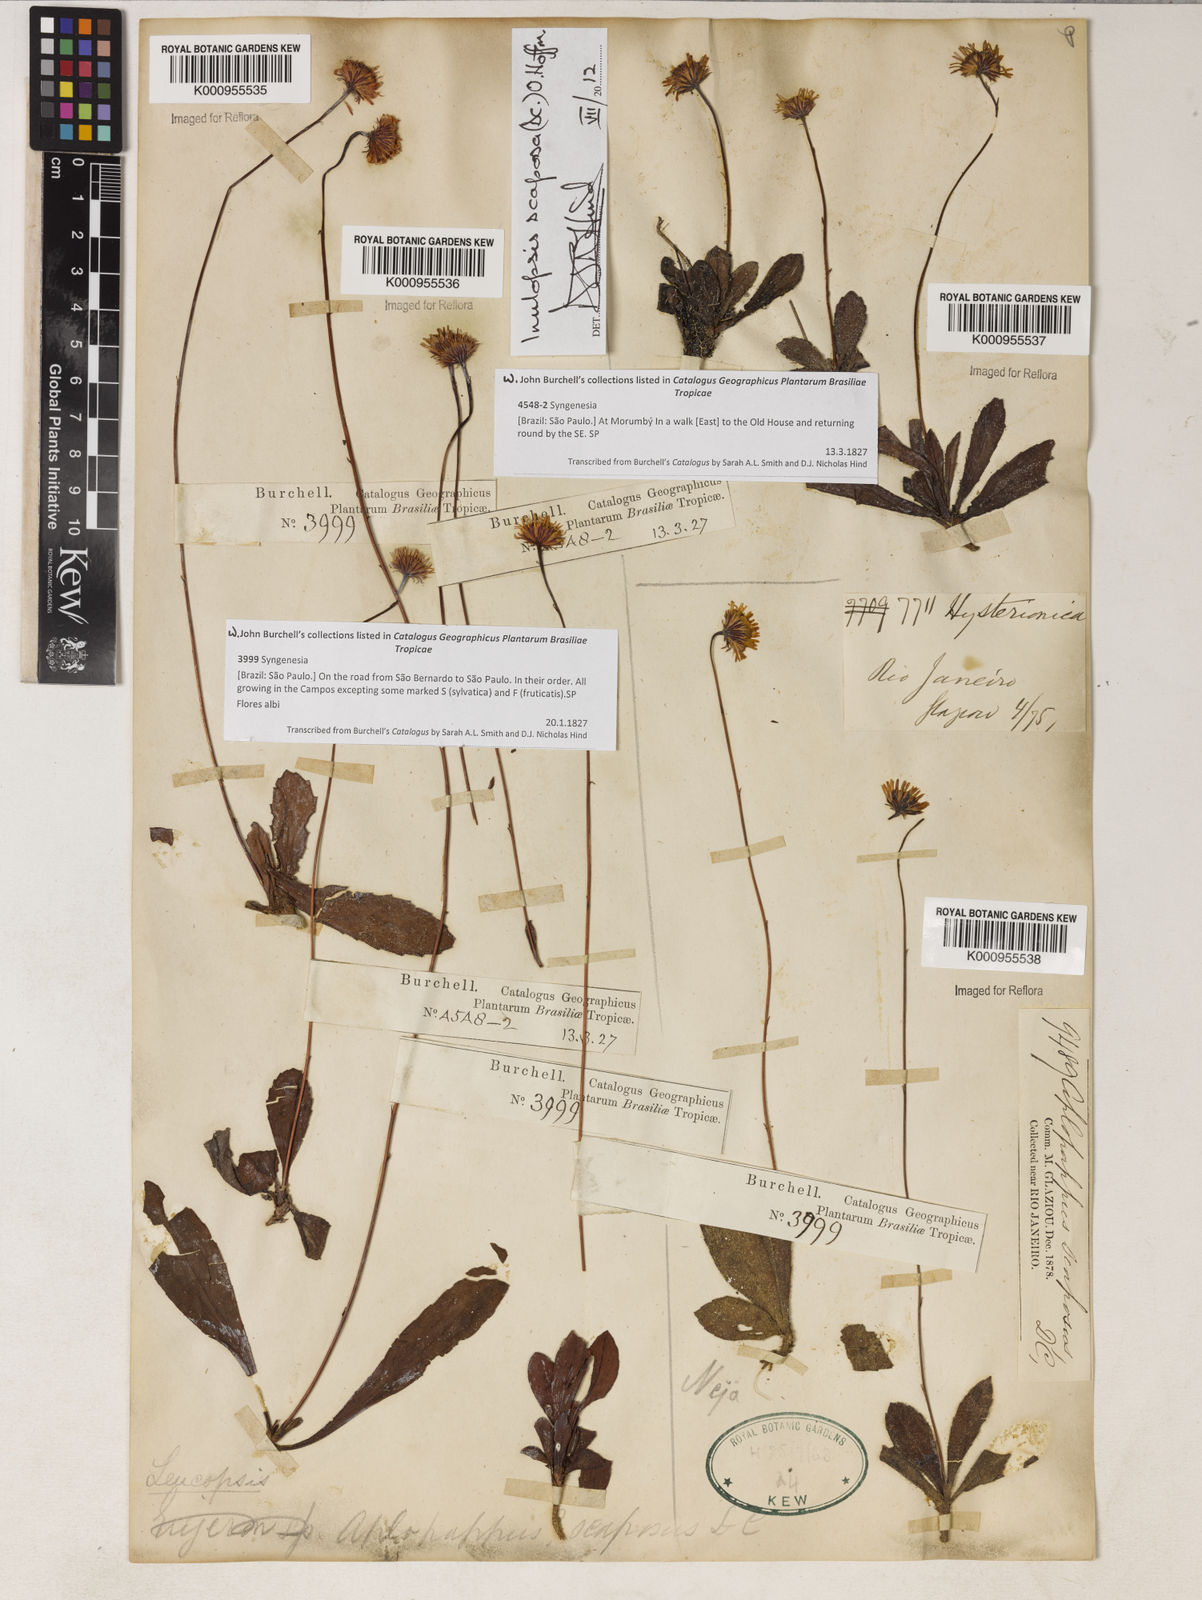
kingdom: Plantae
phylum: Tracheophyta
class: Magnoliopsida
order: Asterales
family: Asteraceae
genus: Inulopsis
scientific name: Inulopsis scaposa
